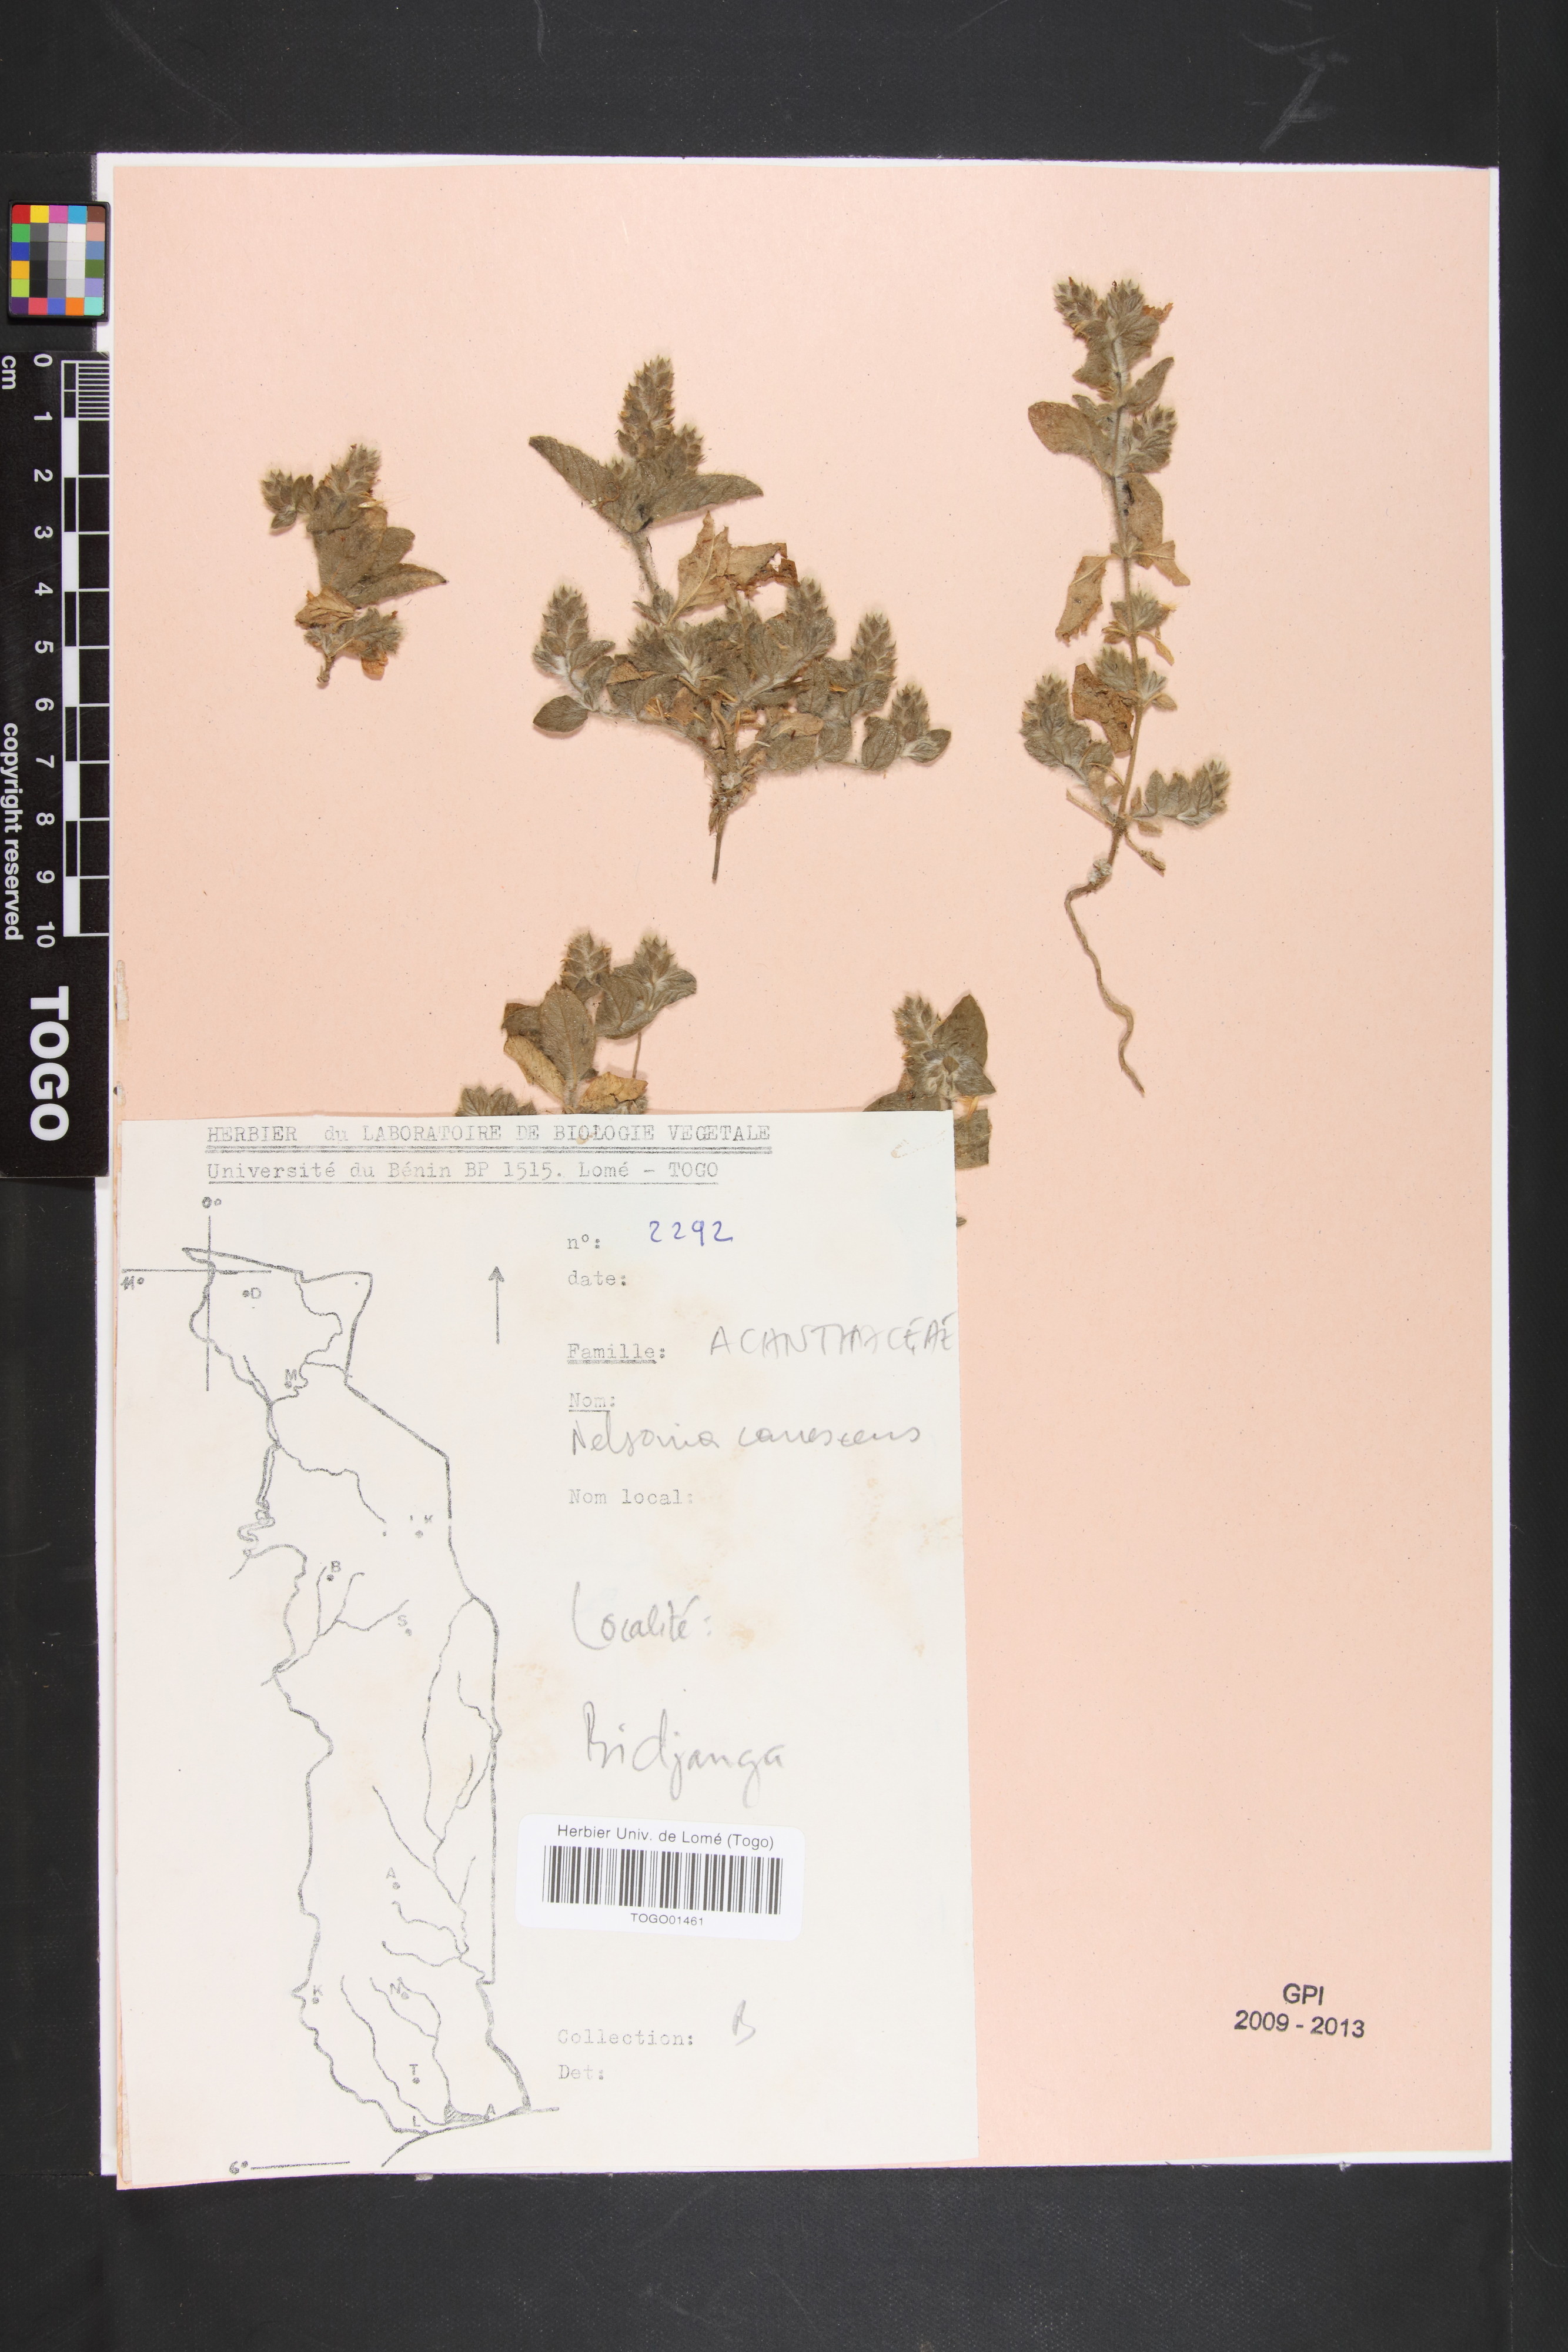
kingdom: Plantae
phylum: Tracheophyta
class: Magnoliopsida
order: Lamiales
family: Acanthaceae
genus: Nelsonia
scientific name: Nelsonia canescens
